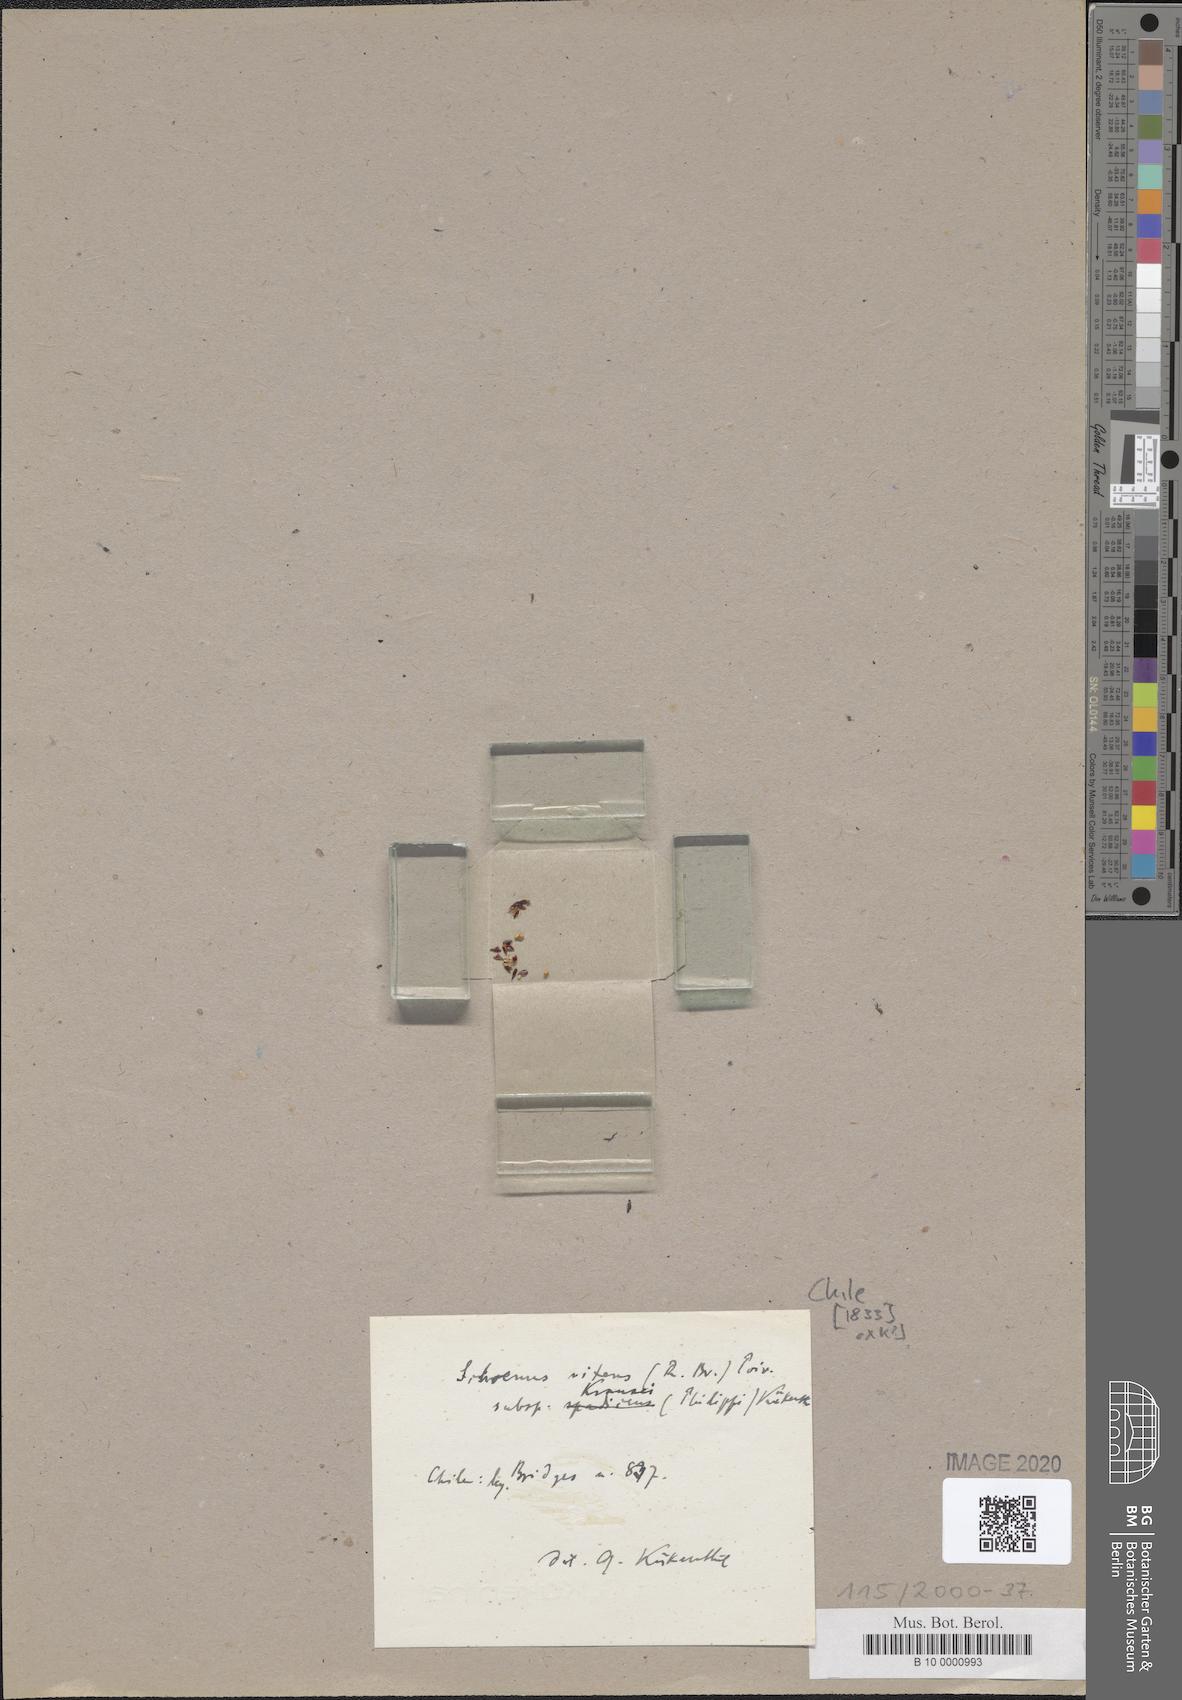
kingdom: Plantae
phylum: Tracheophyta
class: Liliopsida
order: Poales
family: Cyperaceae
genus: Schoenus
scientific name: Schoenus nitens
